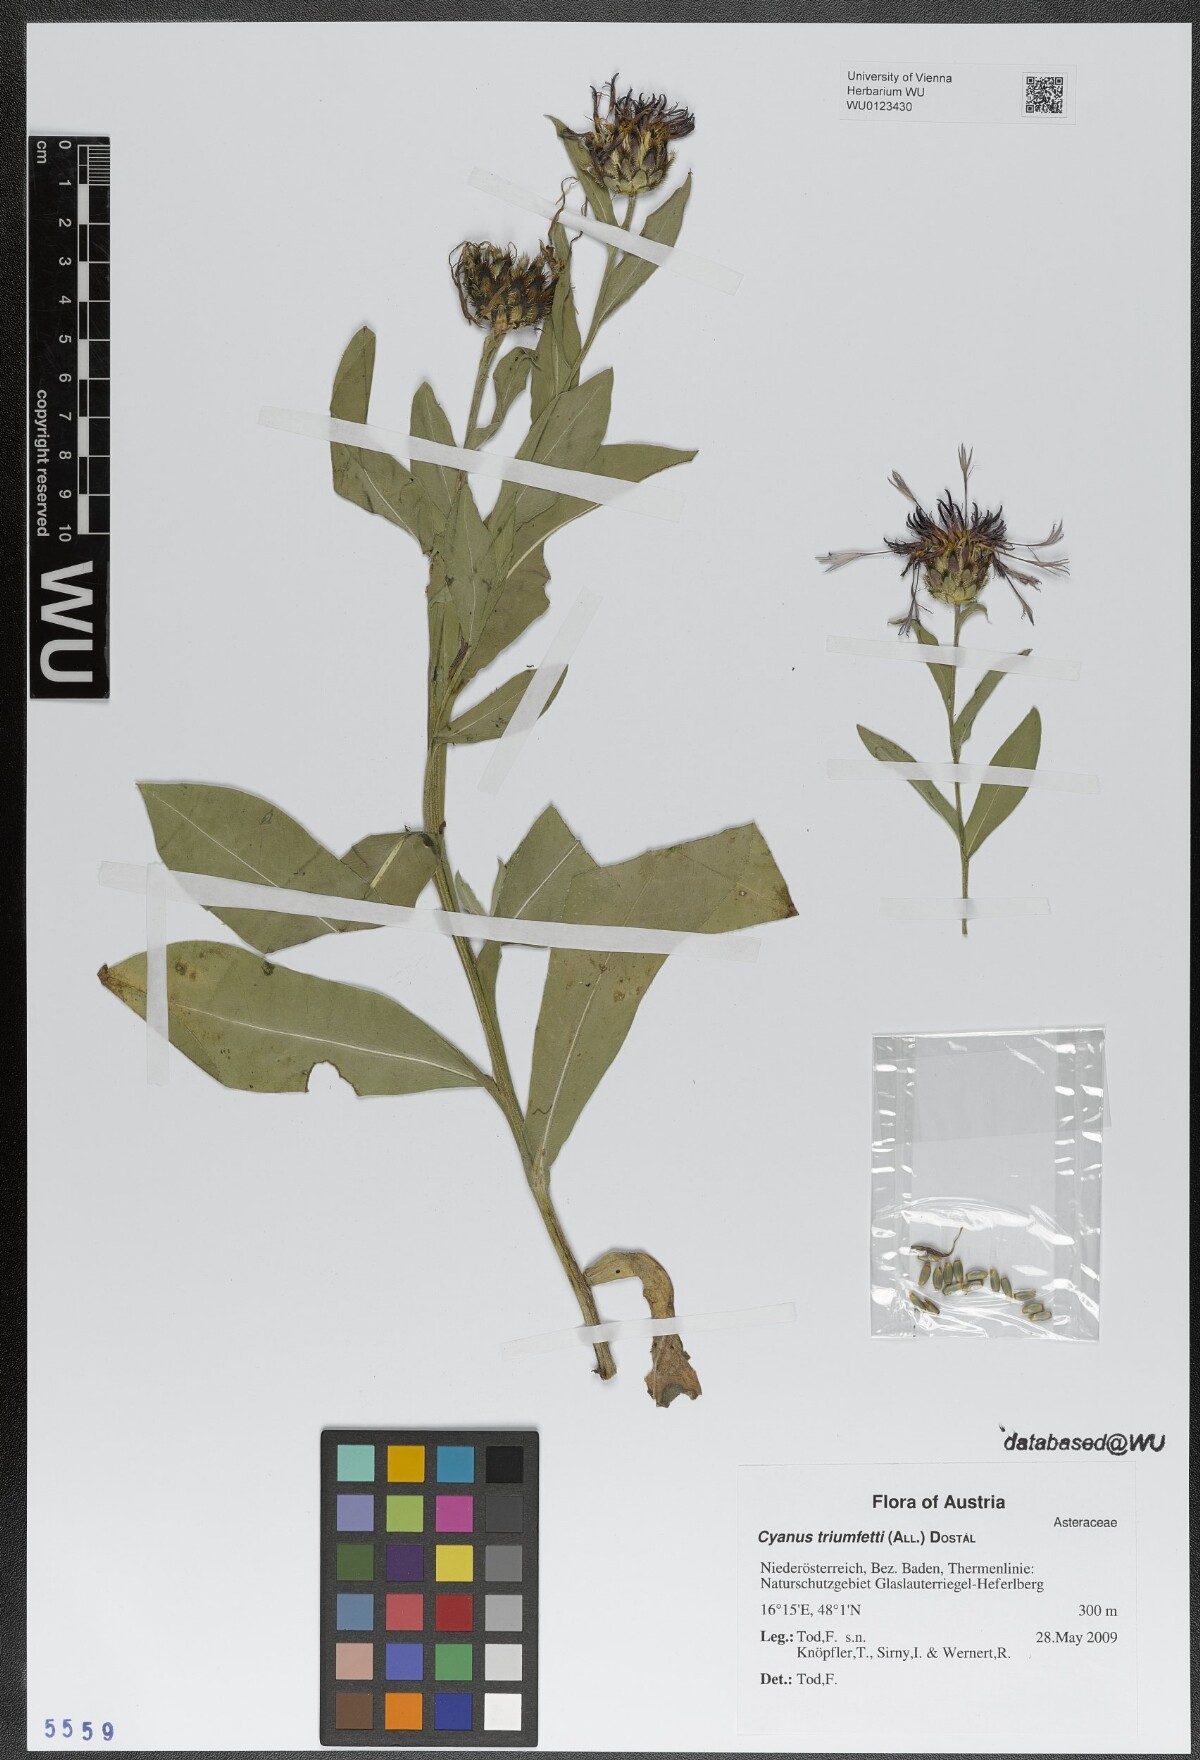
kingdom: Plantae
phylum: Tracheophyta
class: Magnoliopsida
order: Asterales
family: Asteraceae
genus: Centaurea
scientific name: Centaurea triumfettii
